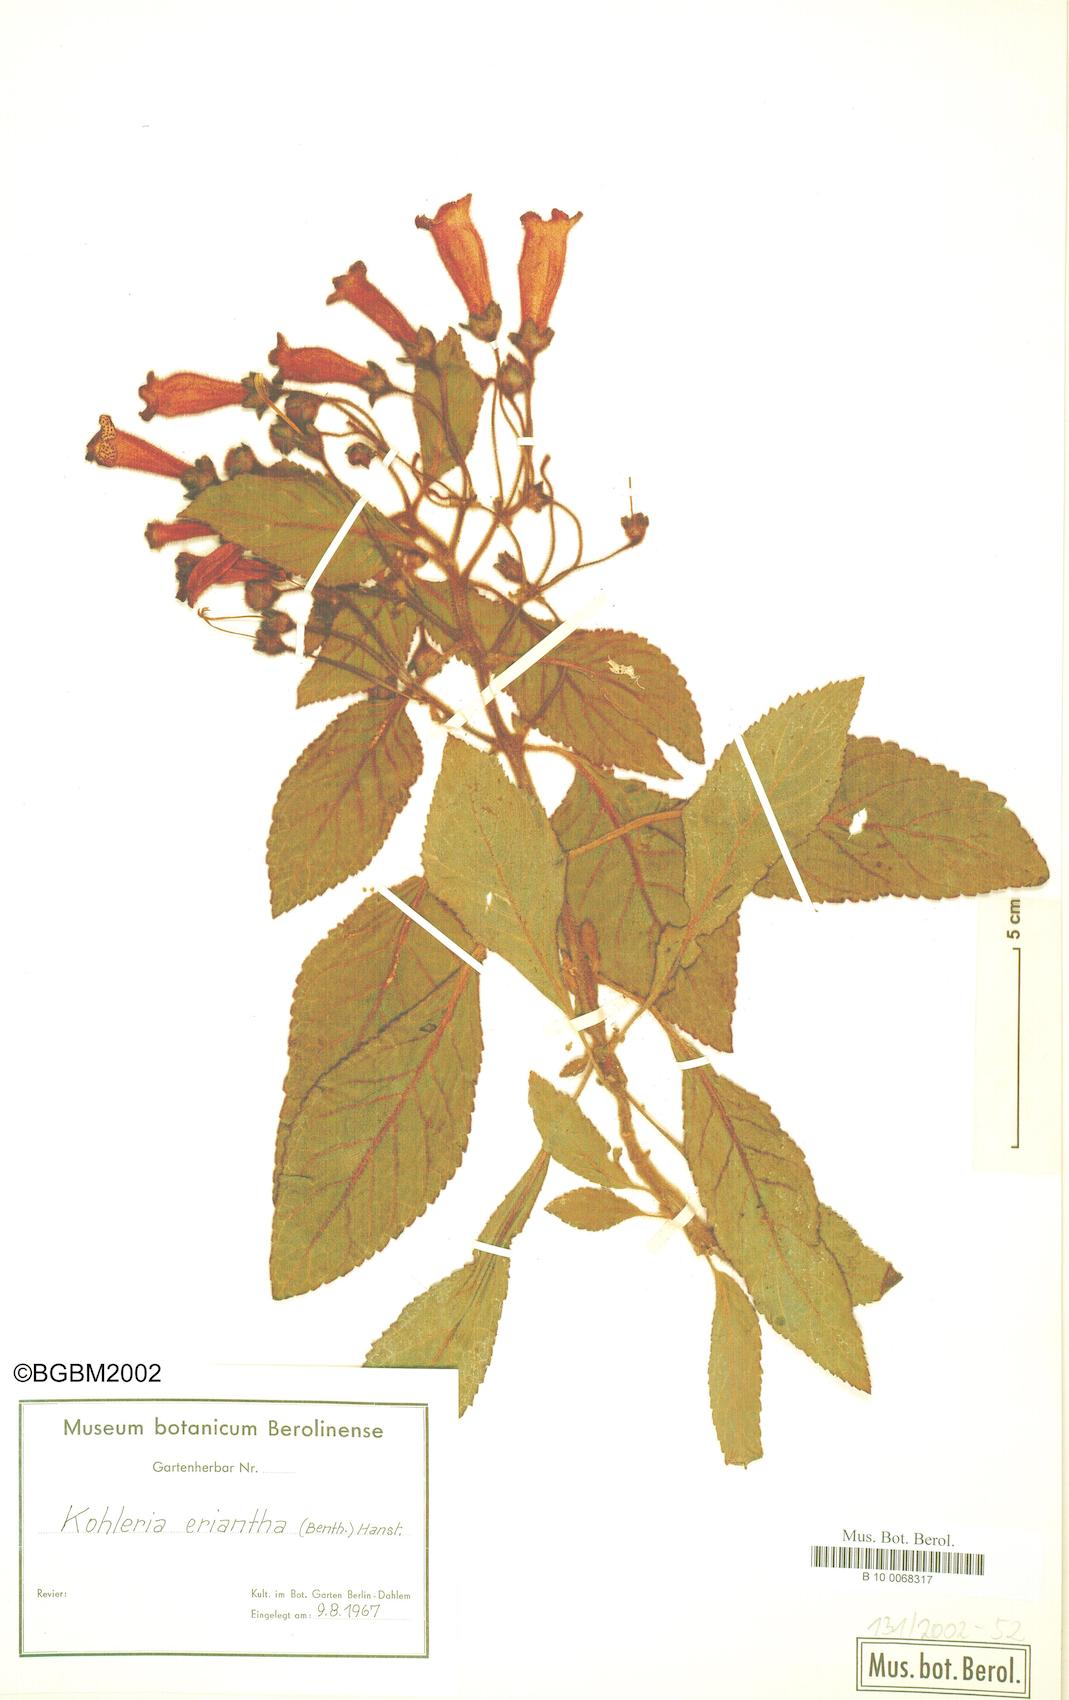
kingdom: Plantae
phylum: Tracheophyta
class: Magnoliopsida
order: Lamiales
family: Gesneriaceae
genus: Kohleria
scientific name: Kohleria hirsuta
